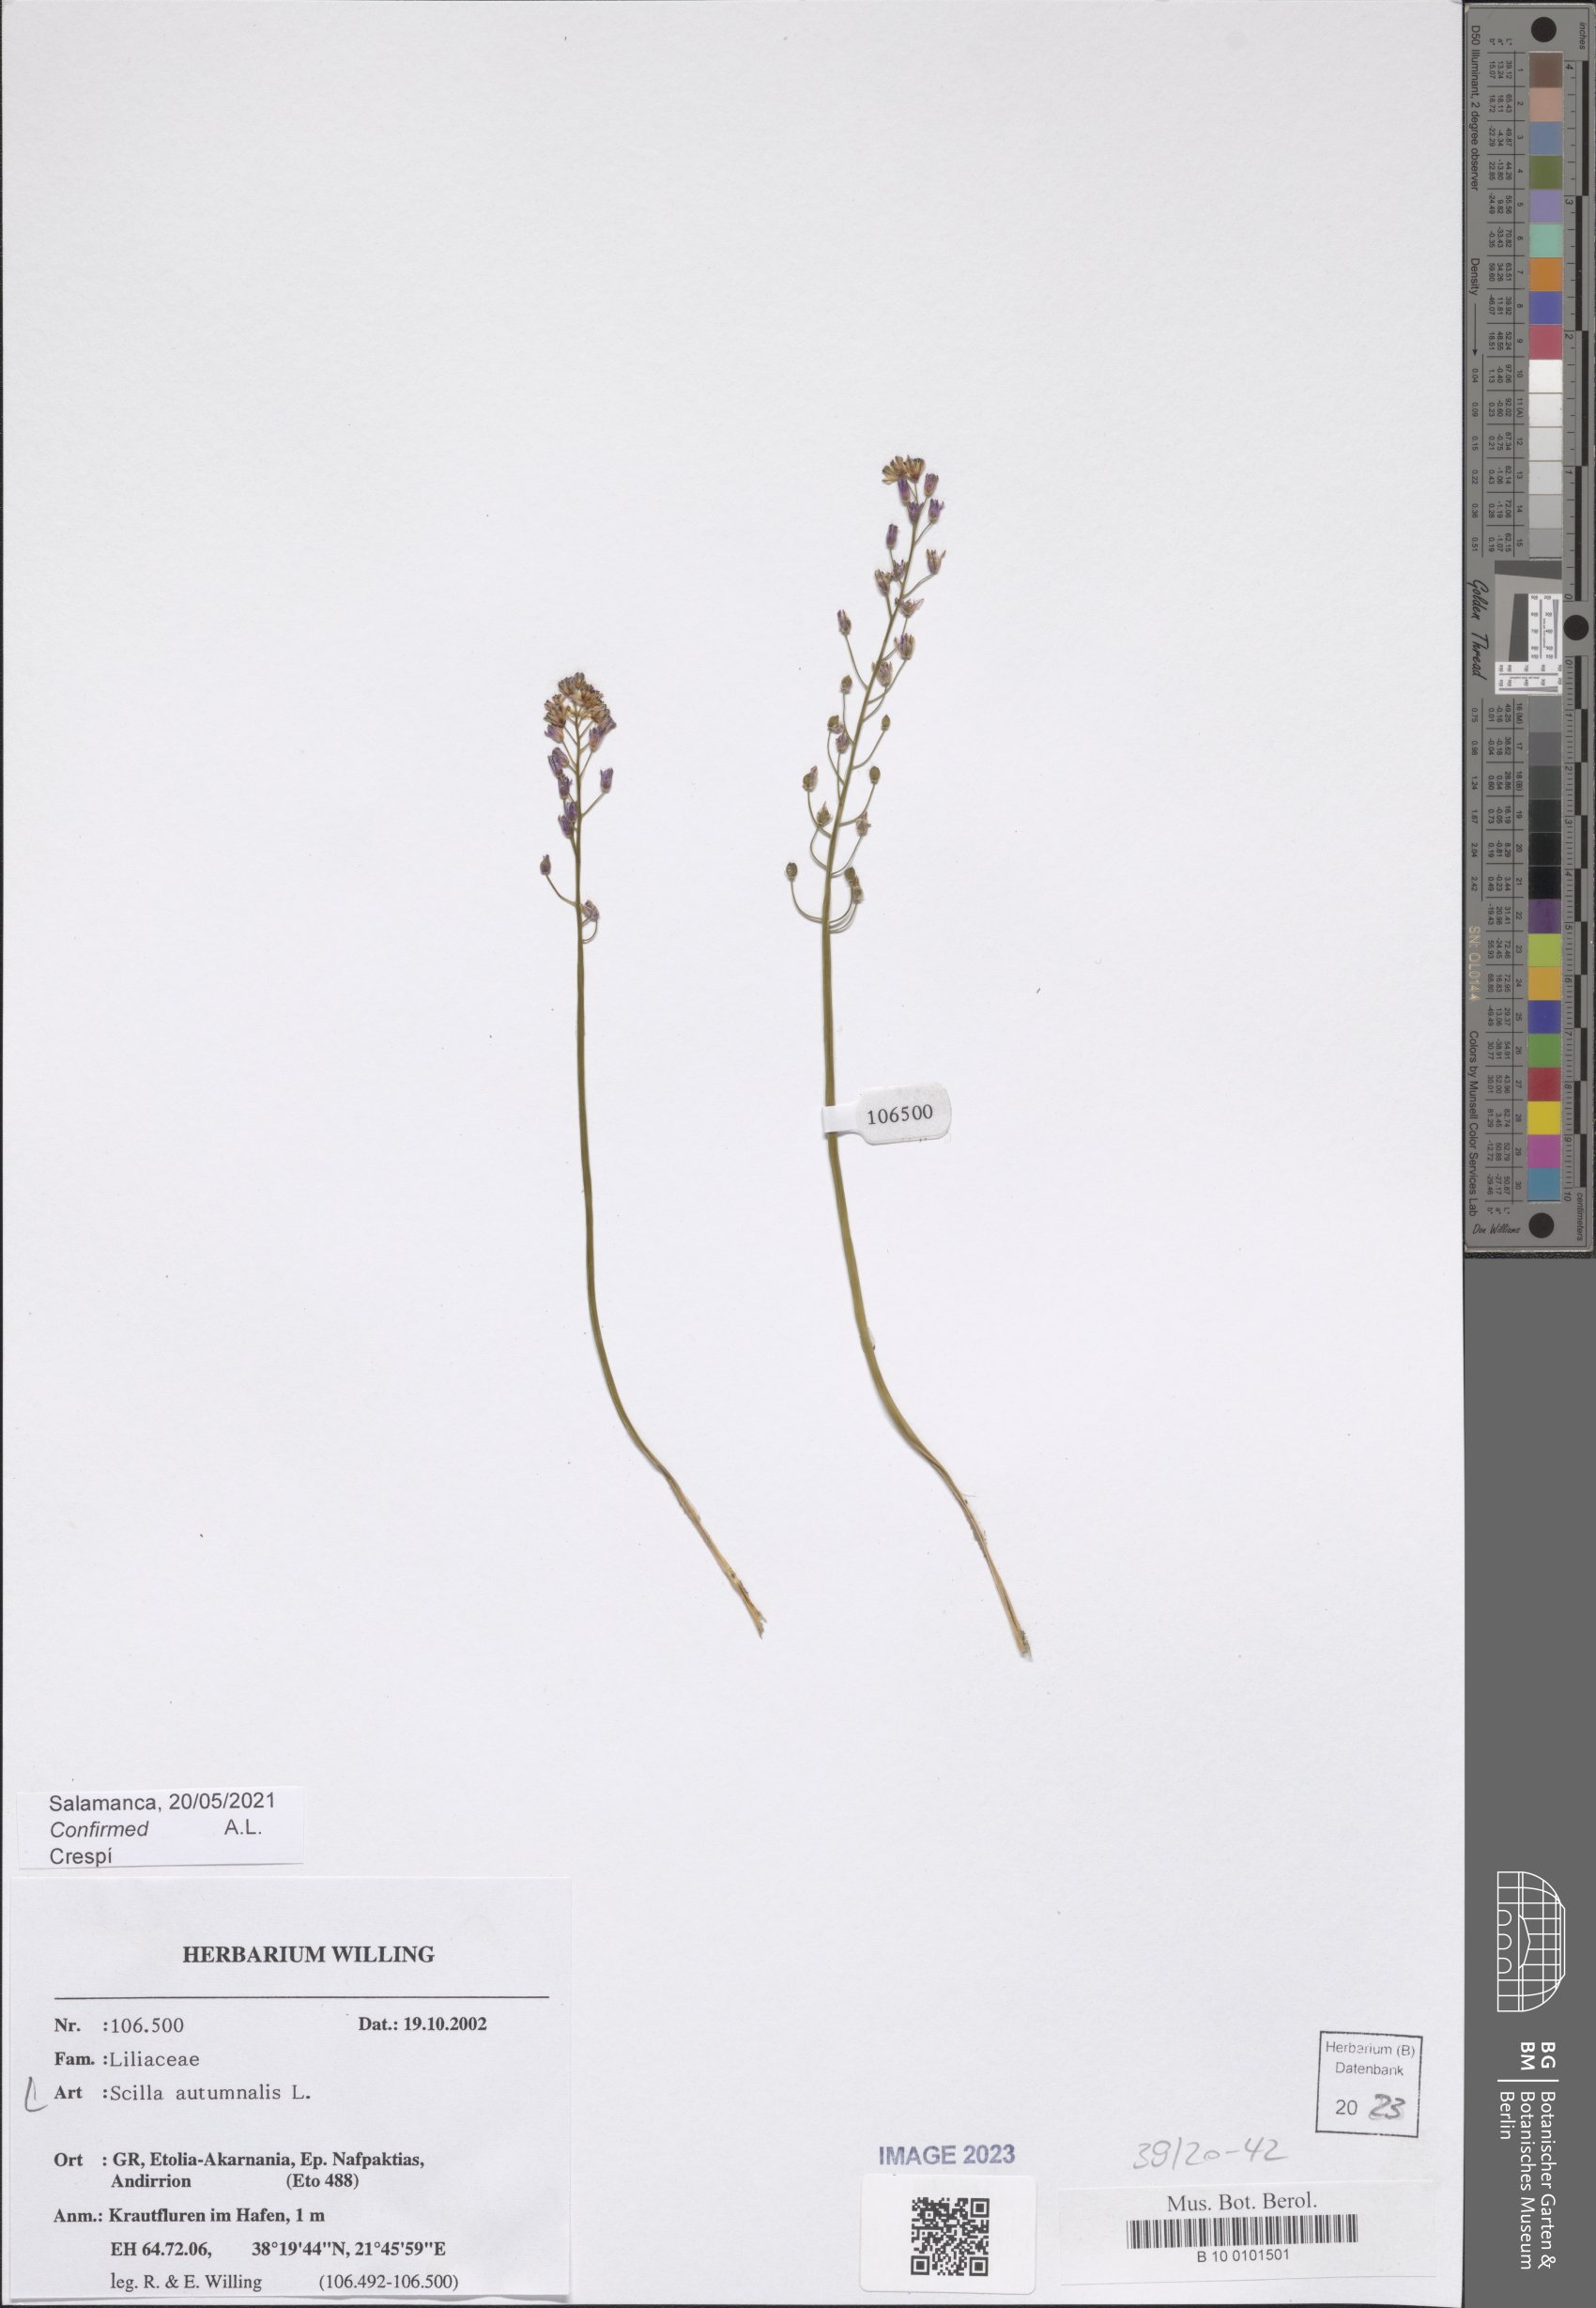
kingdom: Plantae
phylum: Tracheophyta
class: Liliopsida
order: Asparagales
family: Asparagaceae
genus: Prospero
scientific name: Prospero autumnale
